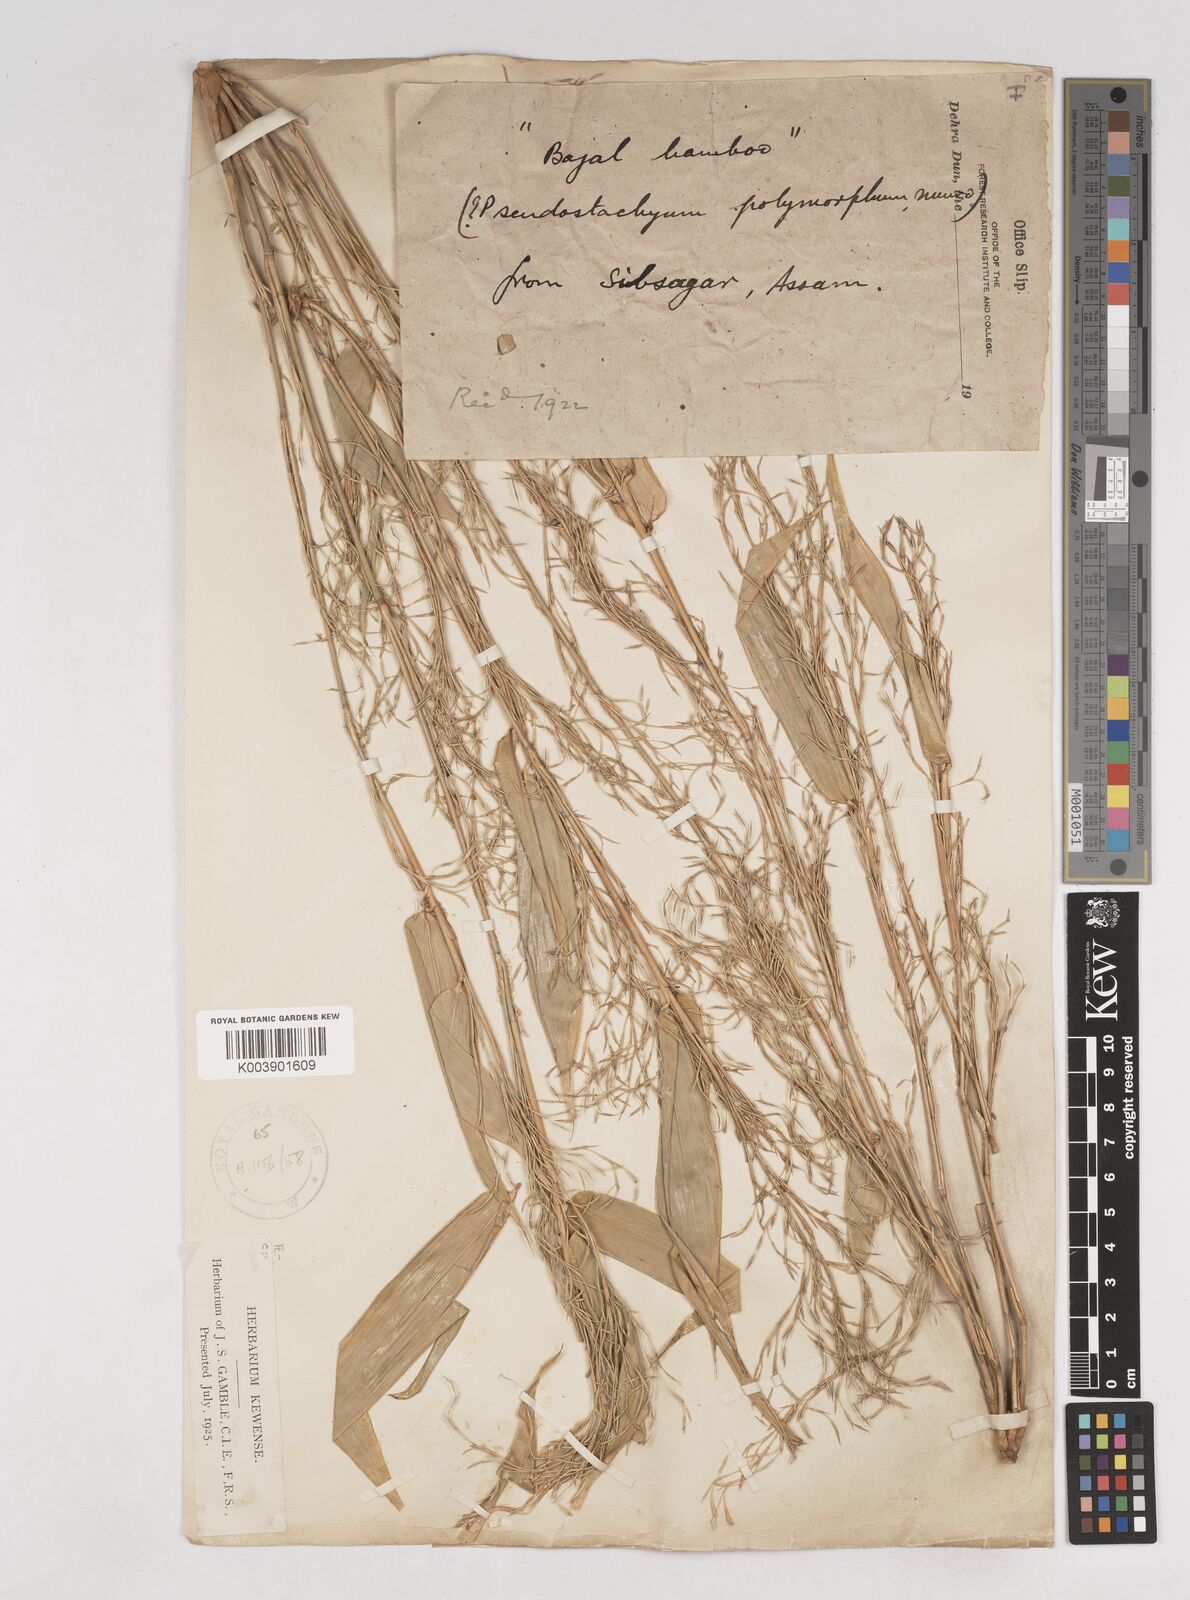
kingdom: Plantae
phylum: Tracheophyta
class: Liliopsida
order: Poales
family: Poaceae
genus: Pseudostachyum
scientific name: Pseudostachyum polymorphum
